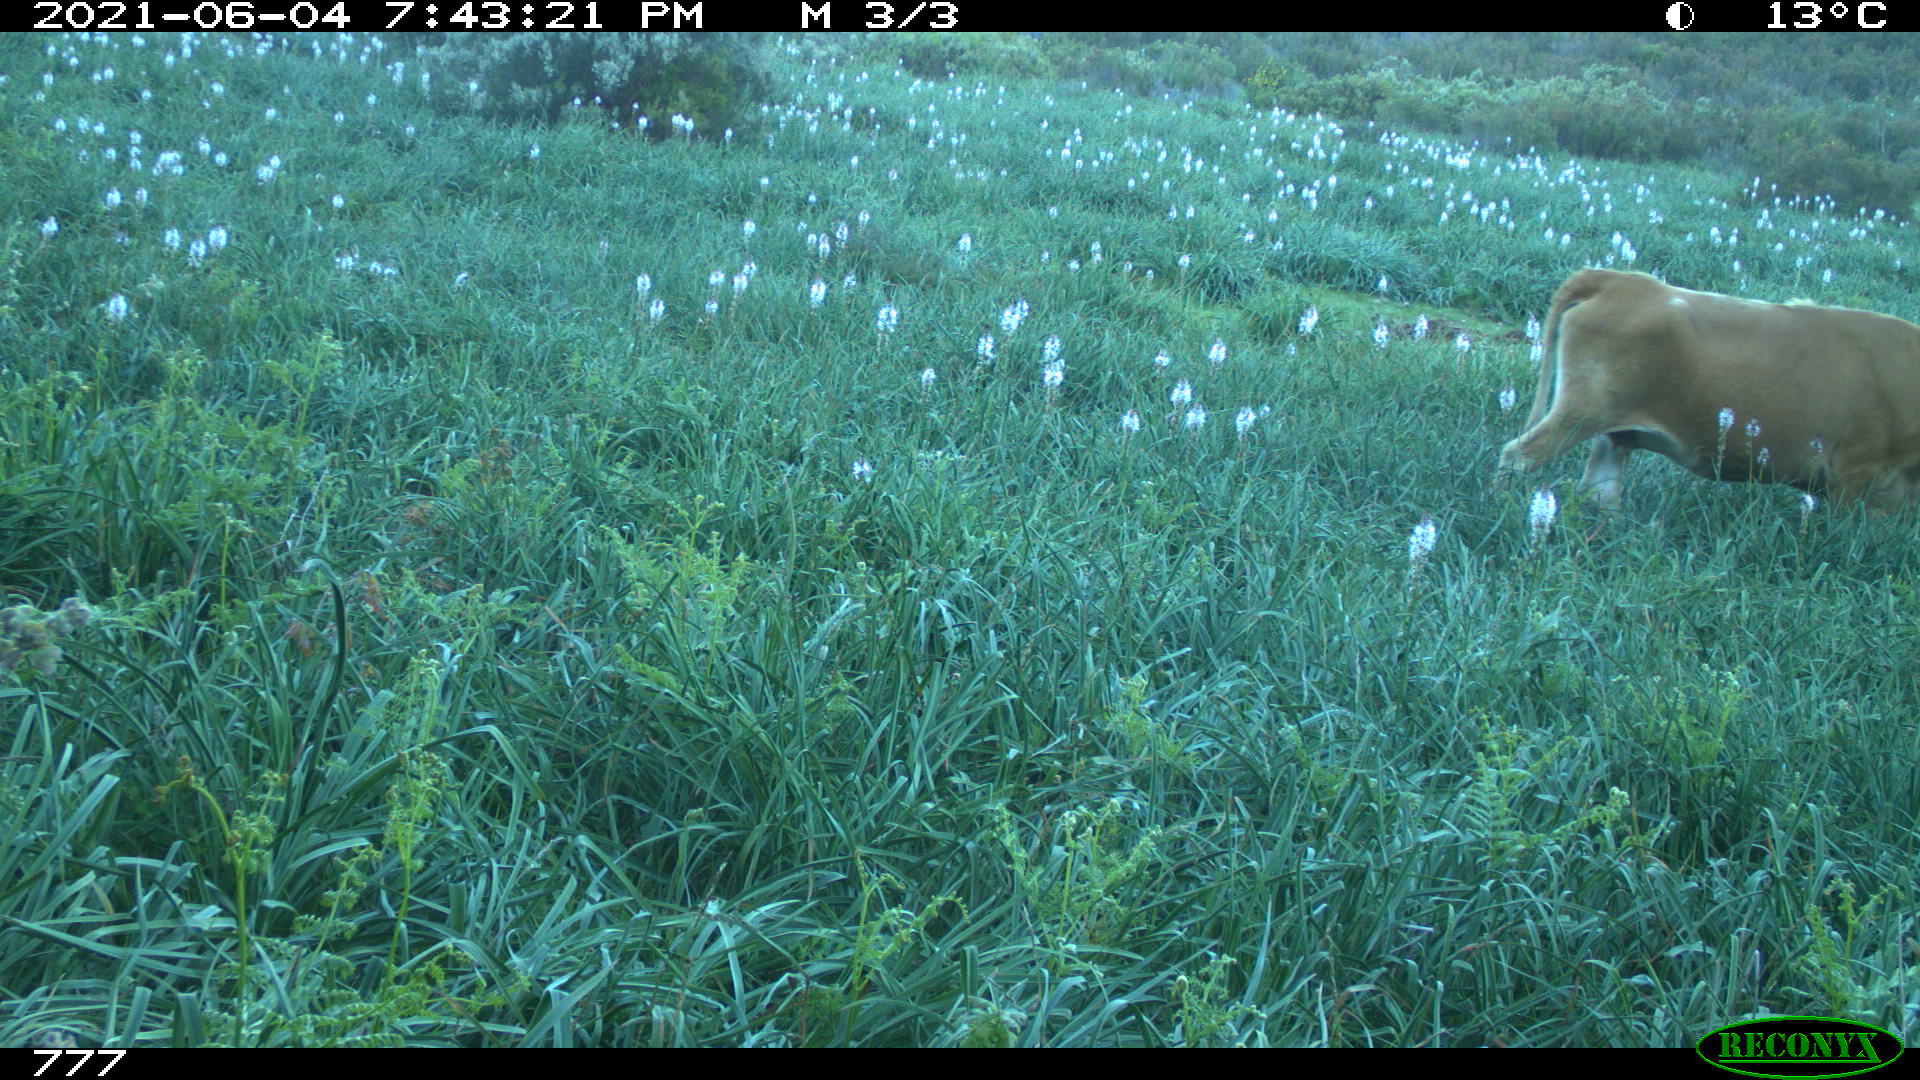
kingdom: Animalia
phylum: Chordata
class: Mammalia
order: Artiodactyla
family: Bovidae
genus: Bos
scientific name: Bos taurus
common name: Domesticated cattle
